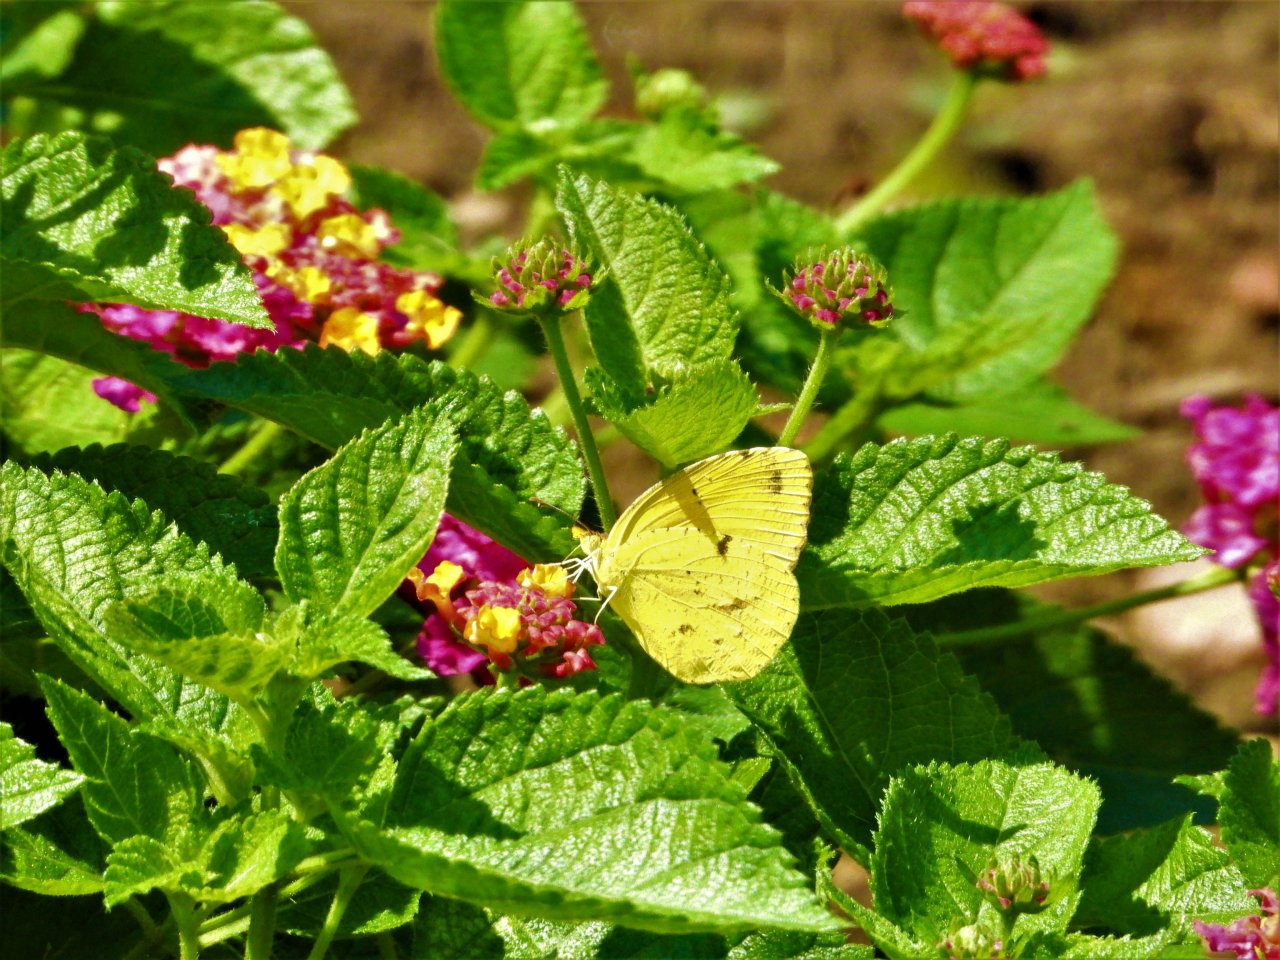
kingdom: Animalia
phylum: Arthropoda
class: Insecta
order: Lepidoptera
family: Pieridae
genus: Abaeis
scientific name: Abaeis nicippe
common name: Sleepy Orange
